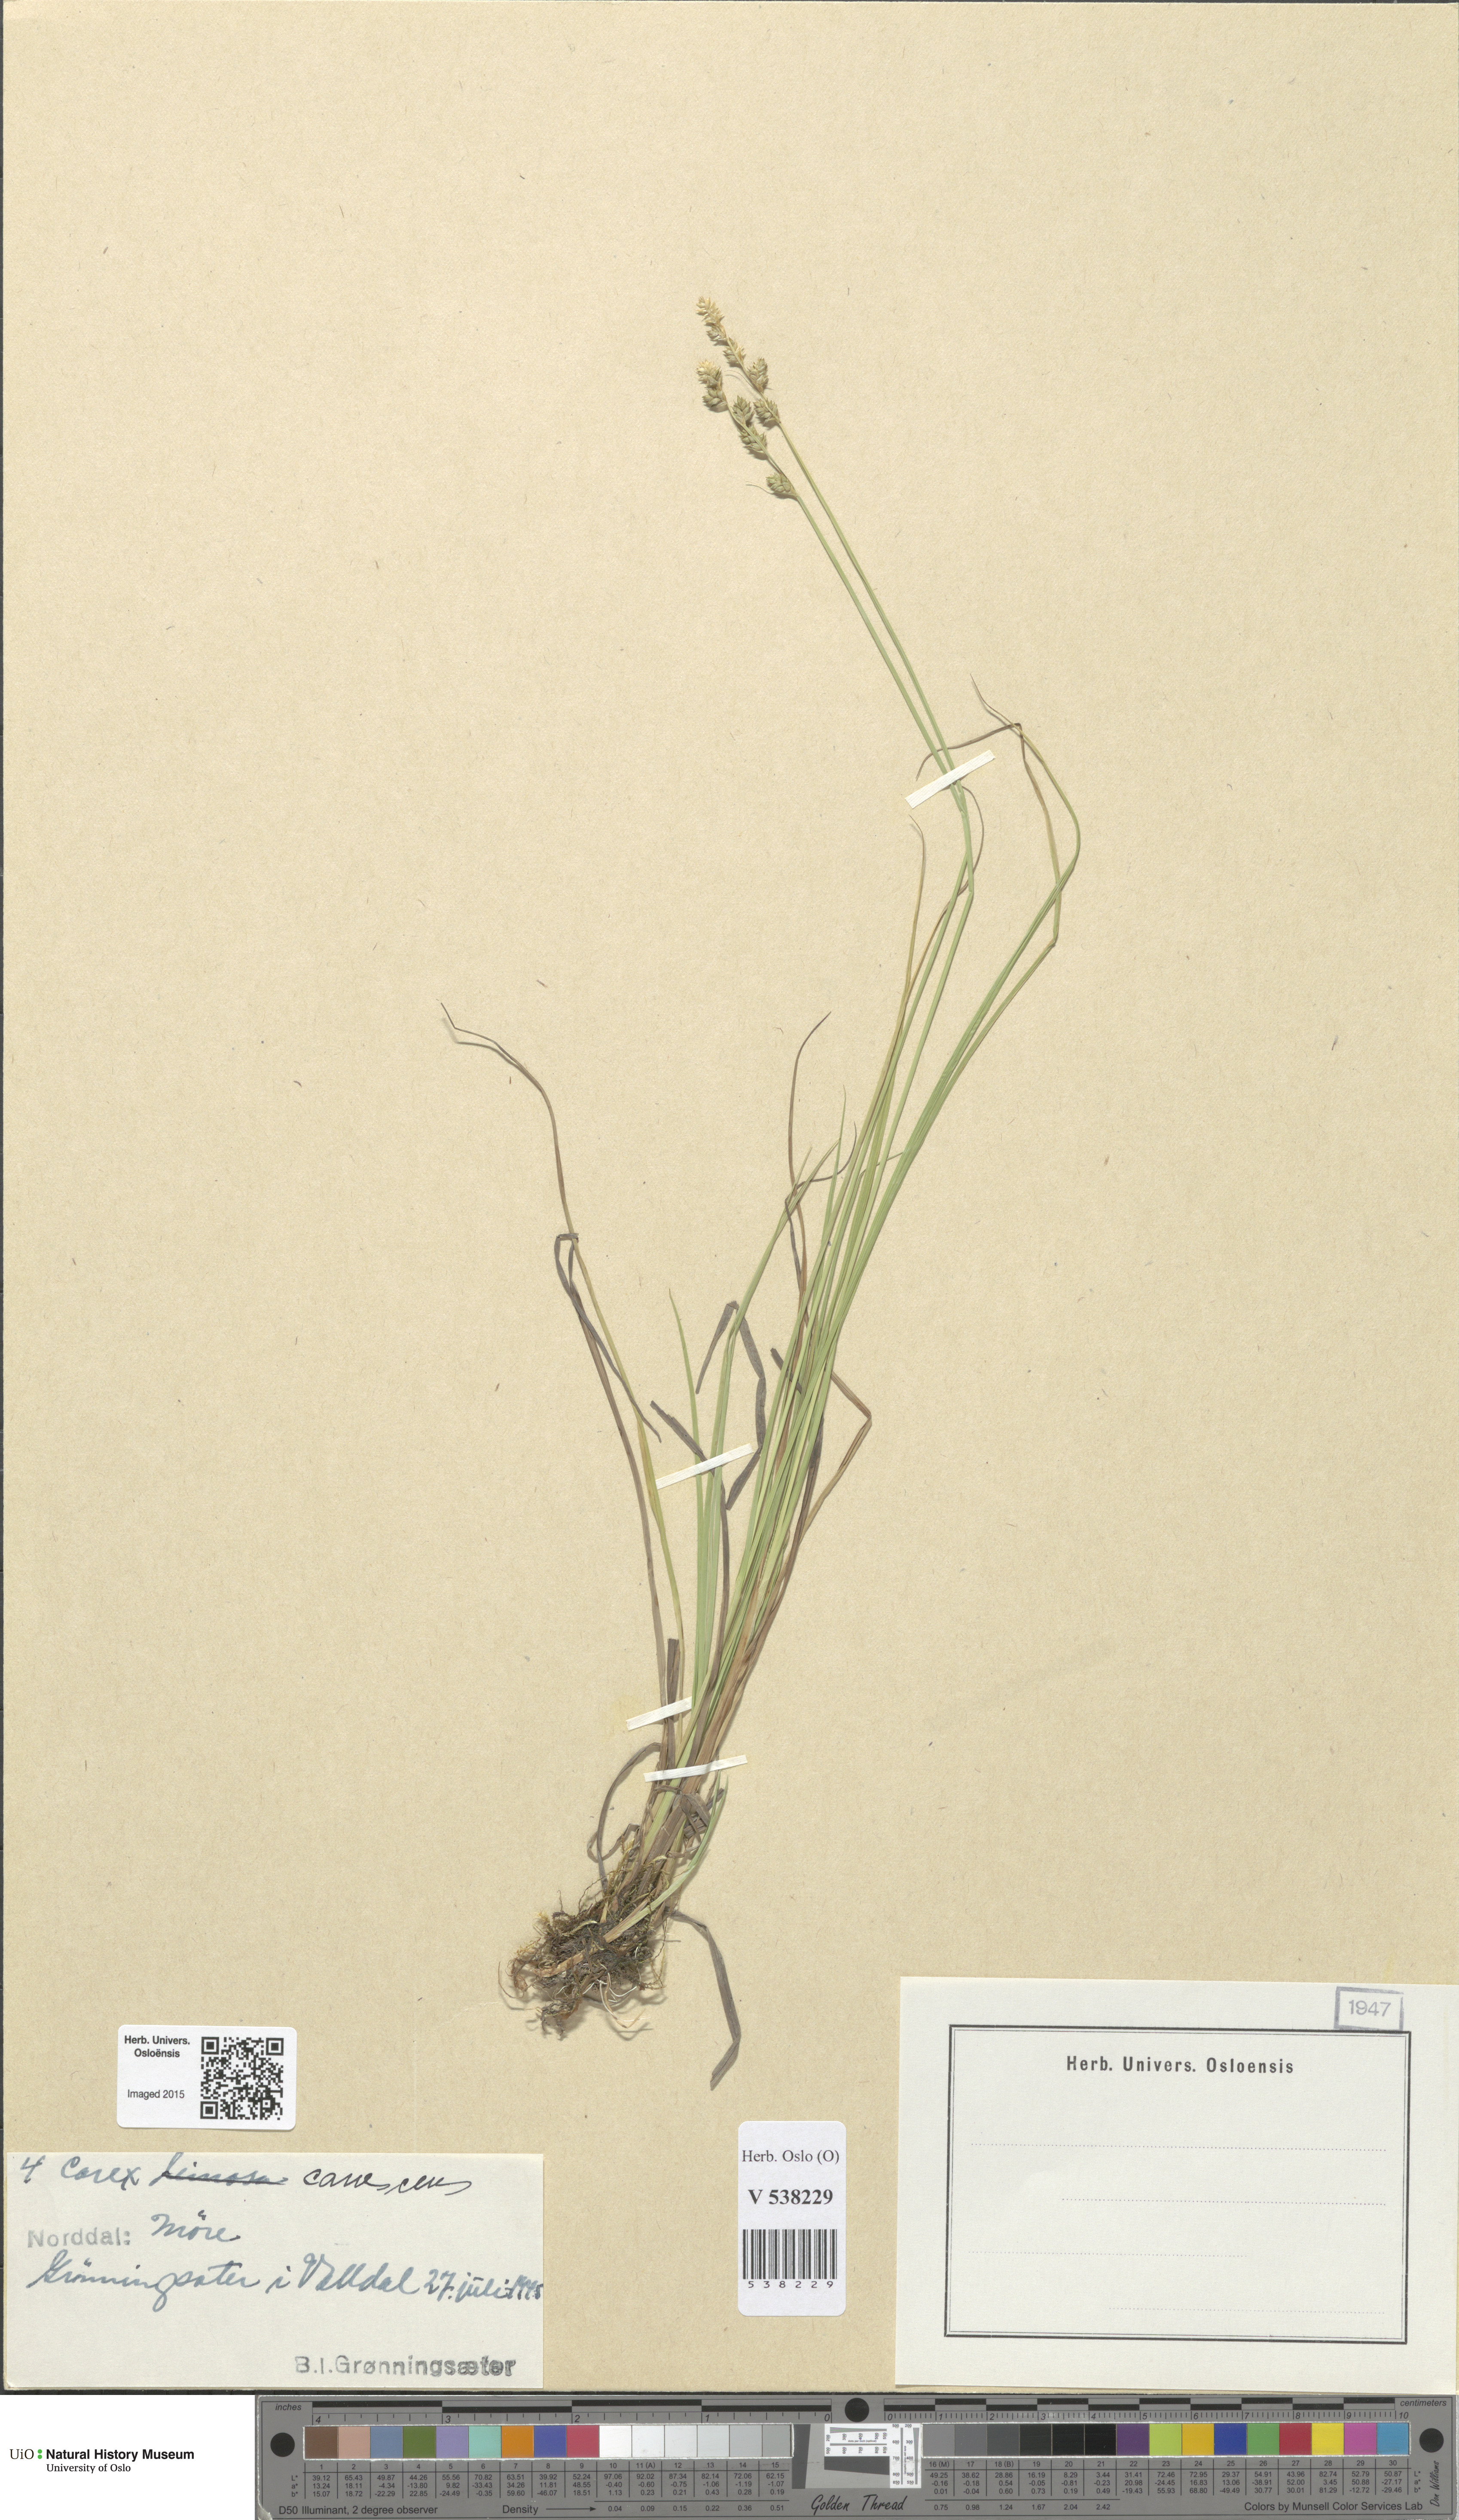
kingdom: Plantae
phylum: Tracheophyta
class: Liliopsida
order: Poales
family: Cyperaceae
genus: Carex
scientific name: Carex canescens
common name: White sedge
